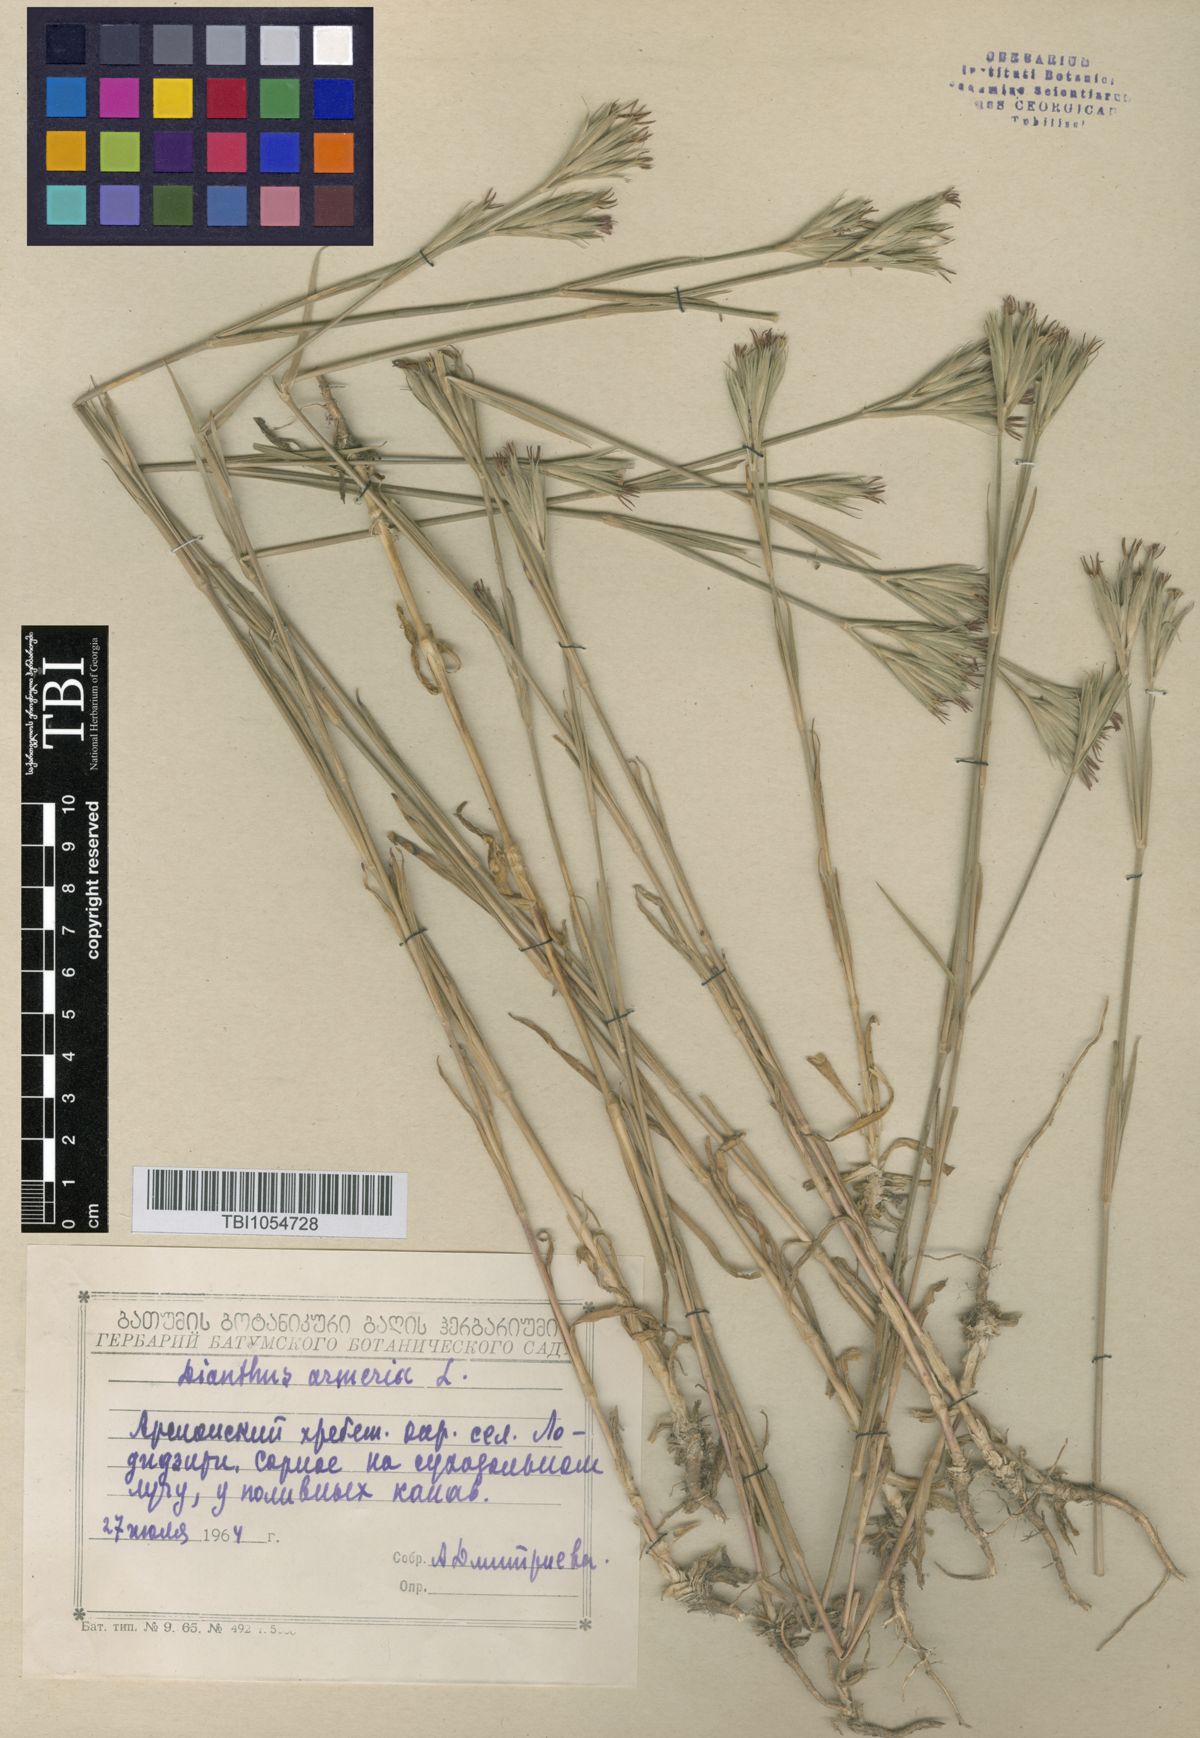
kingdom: Plantae
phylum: Tracheophyta
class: Magnoliopsida
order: Caryophyllales
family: Caryophyllaceae
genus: Dianthus
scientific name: Dianthus armeria
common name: Deptford pink
